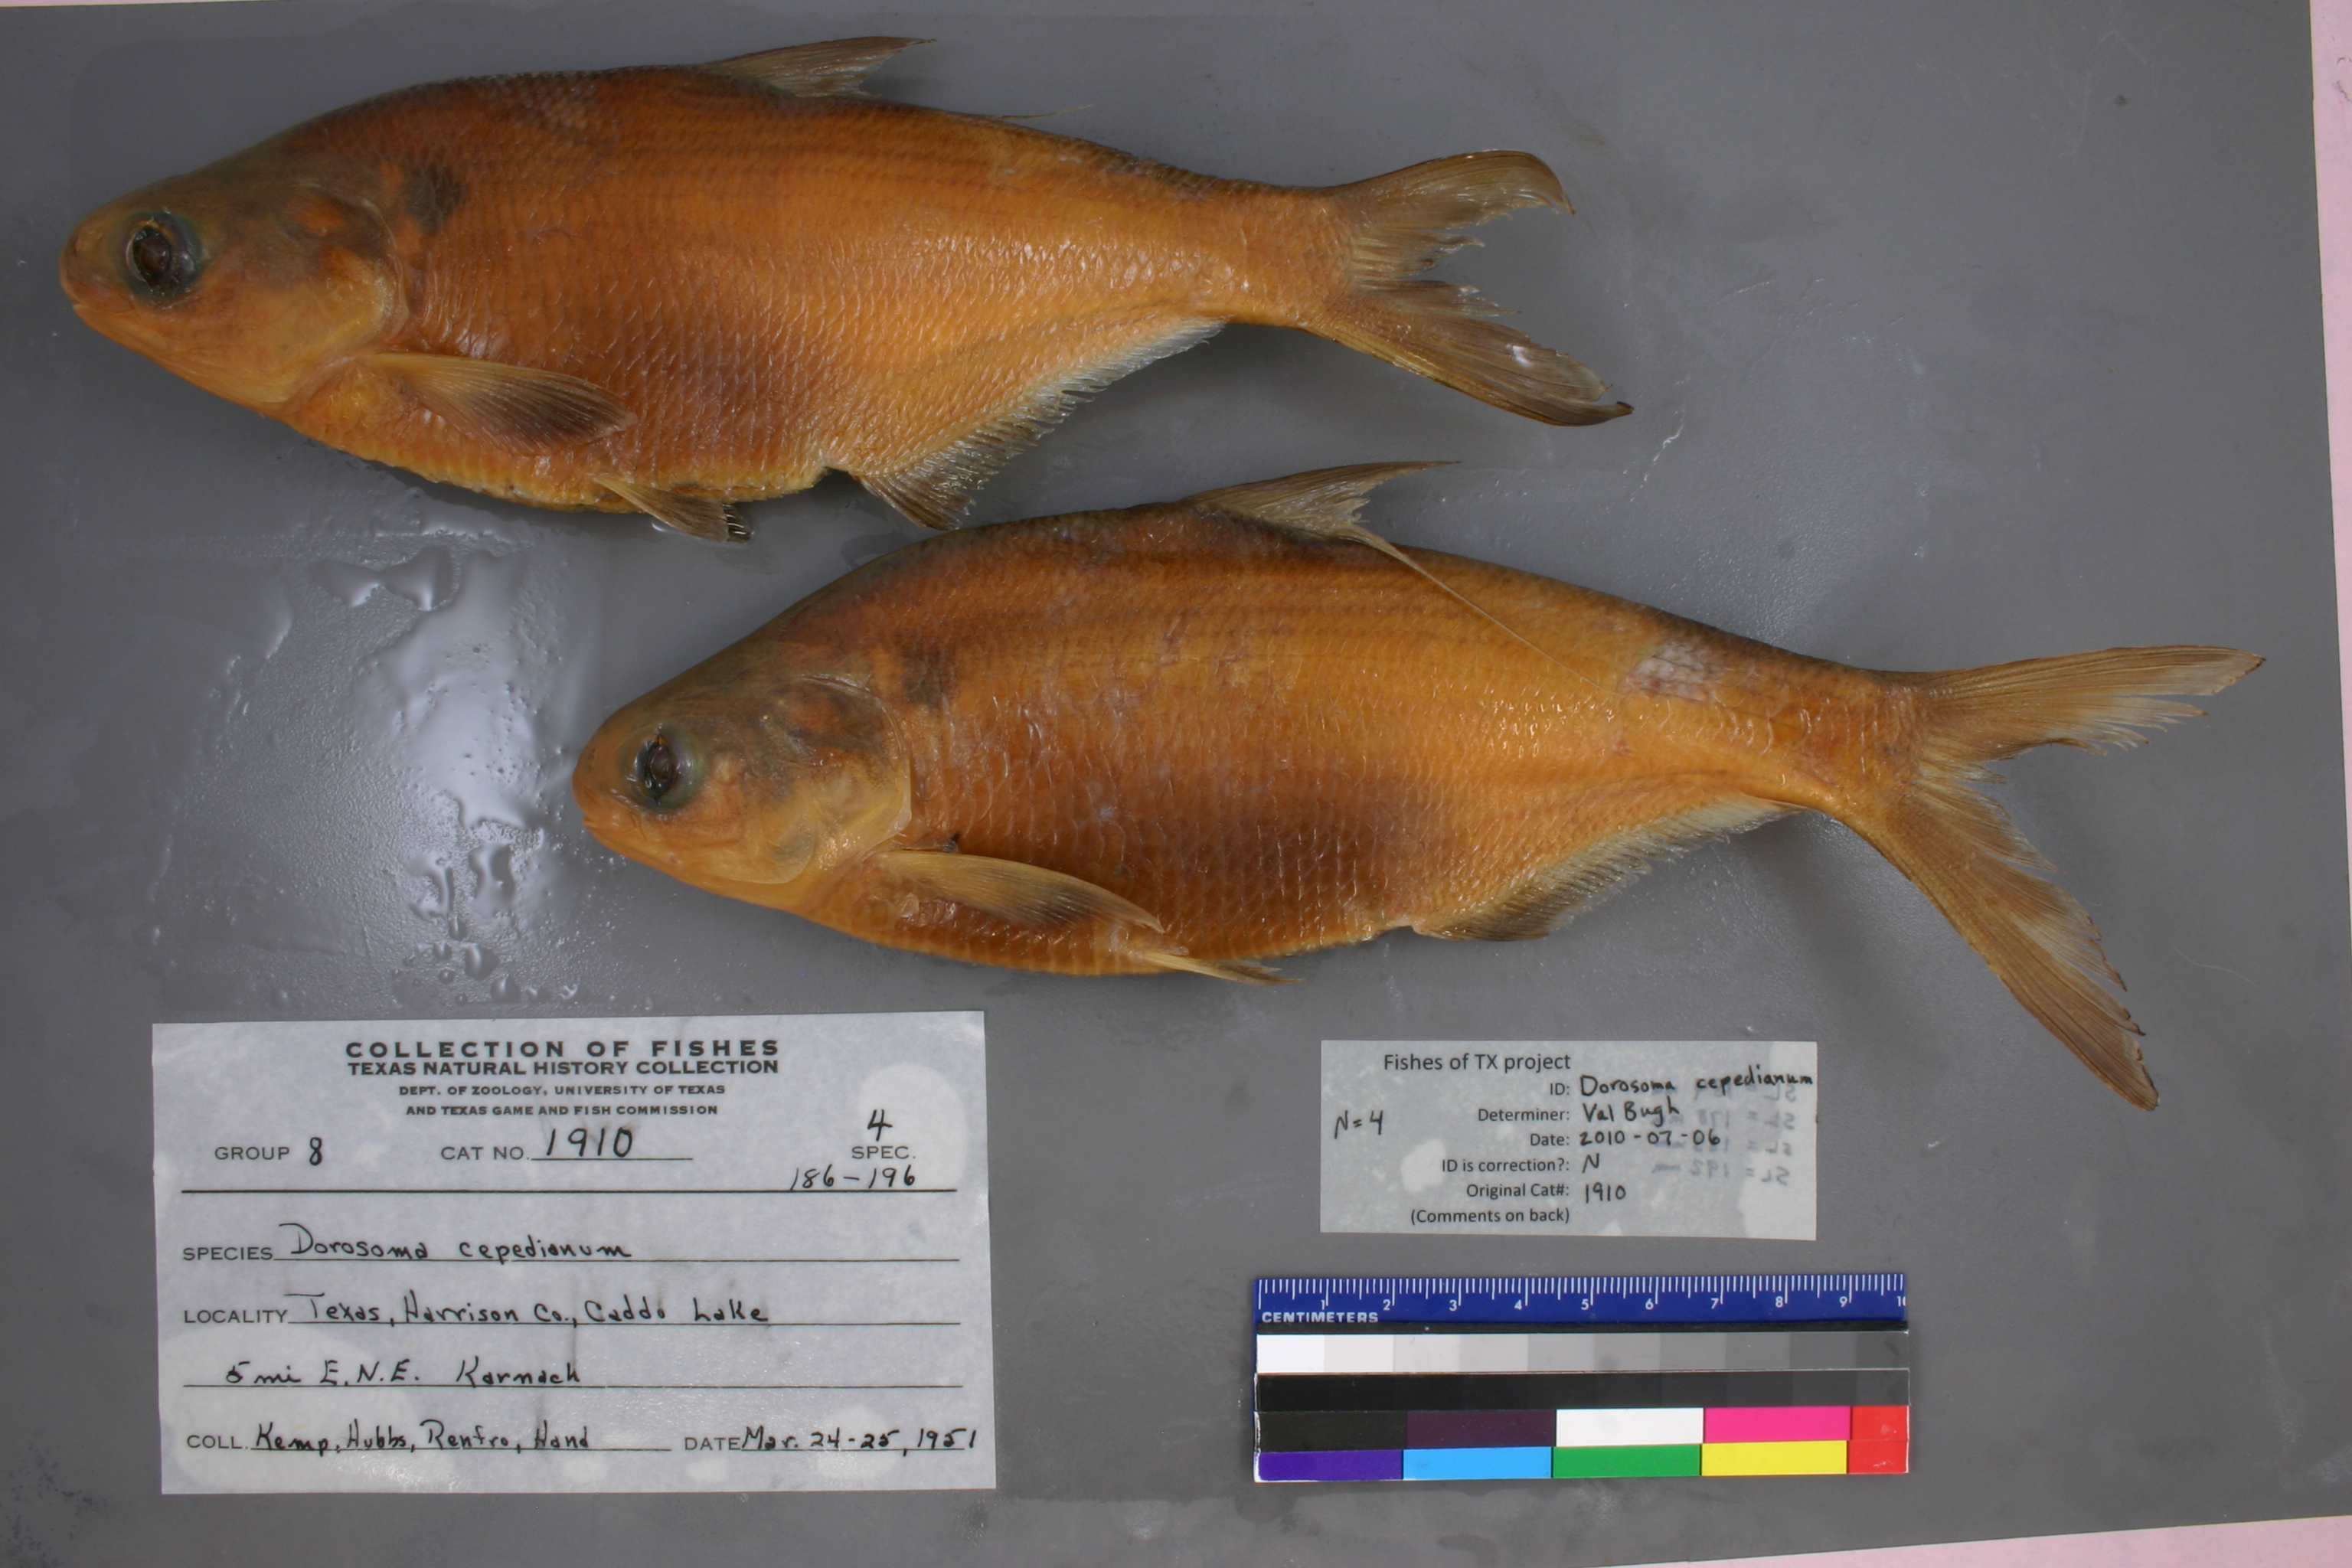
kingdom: Animalia
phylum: Chordata
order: Clupeiformes
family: Clupeidae
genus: Dorosoma
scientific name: Dorosoma cepedianum
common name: Gizzard shad
